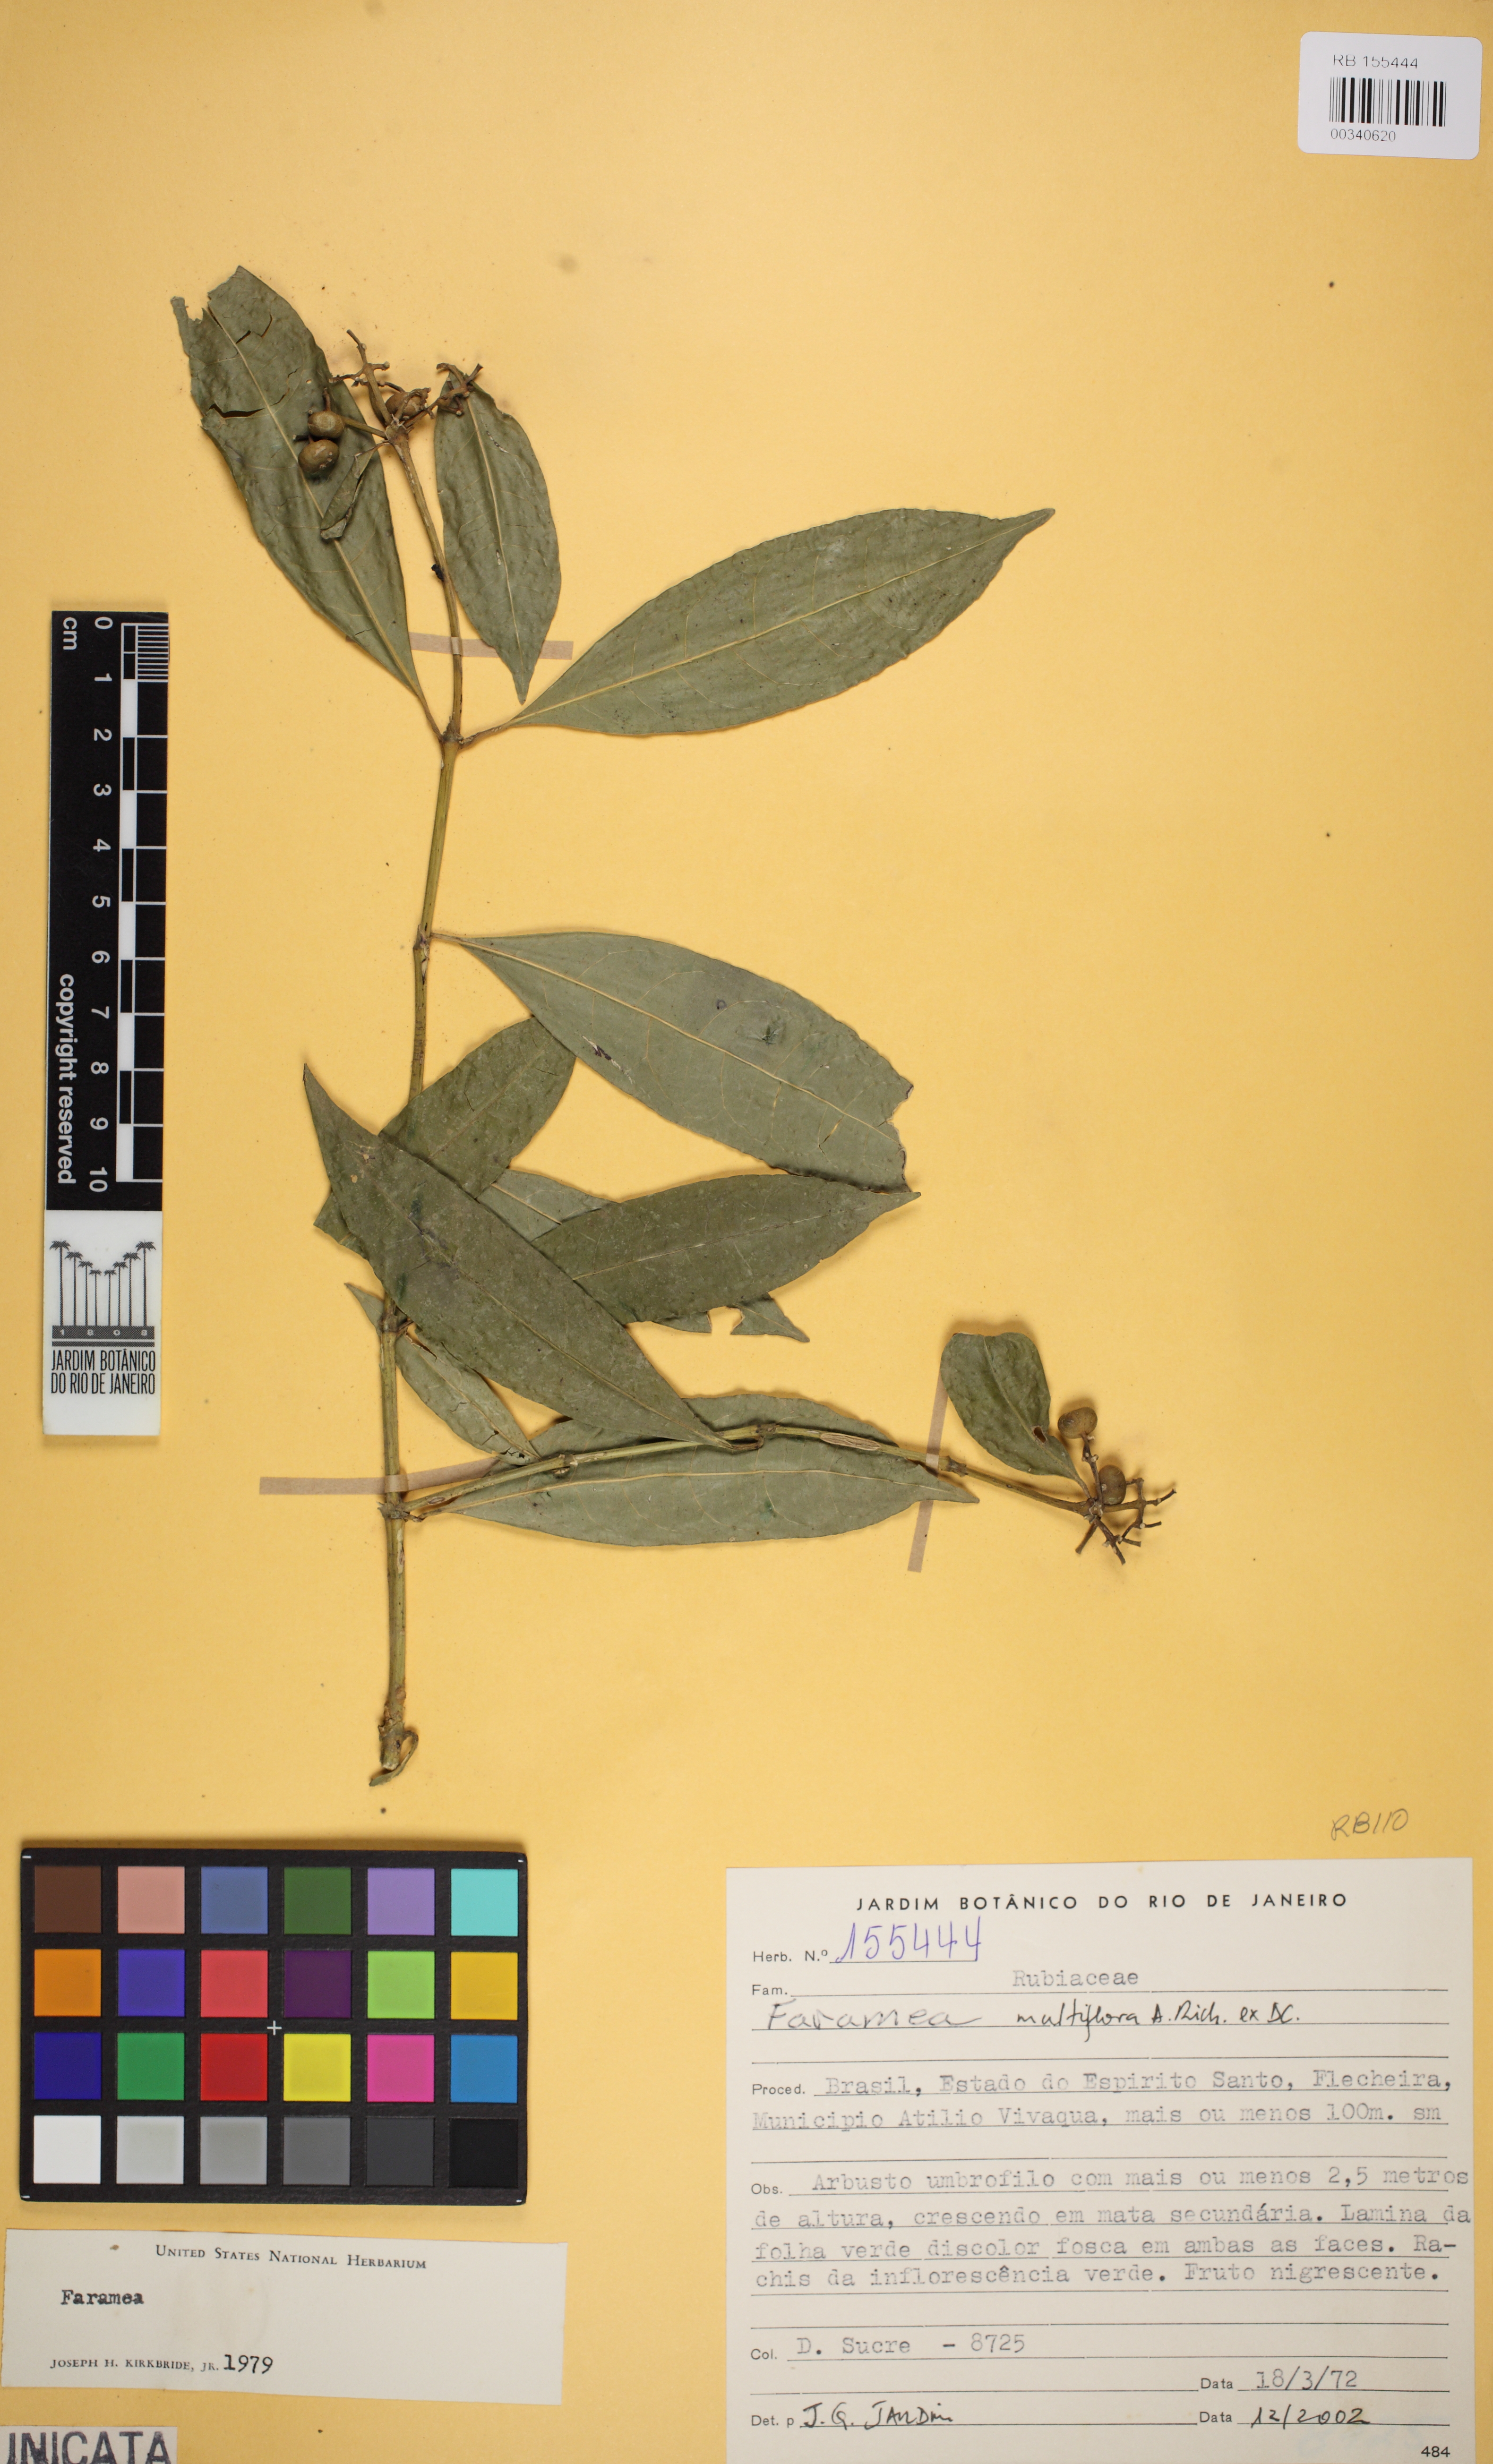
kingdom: Plantae
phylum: Tracheophyta
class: Magnoliopsida
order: Gentianales
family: Rubiaceae
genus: Faramea
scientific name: Faramea multiflora
